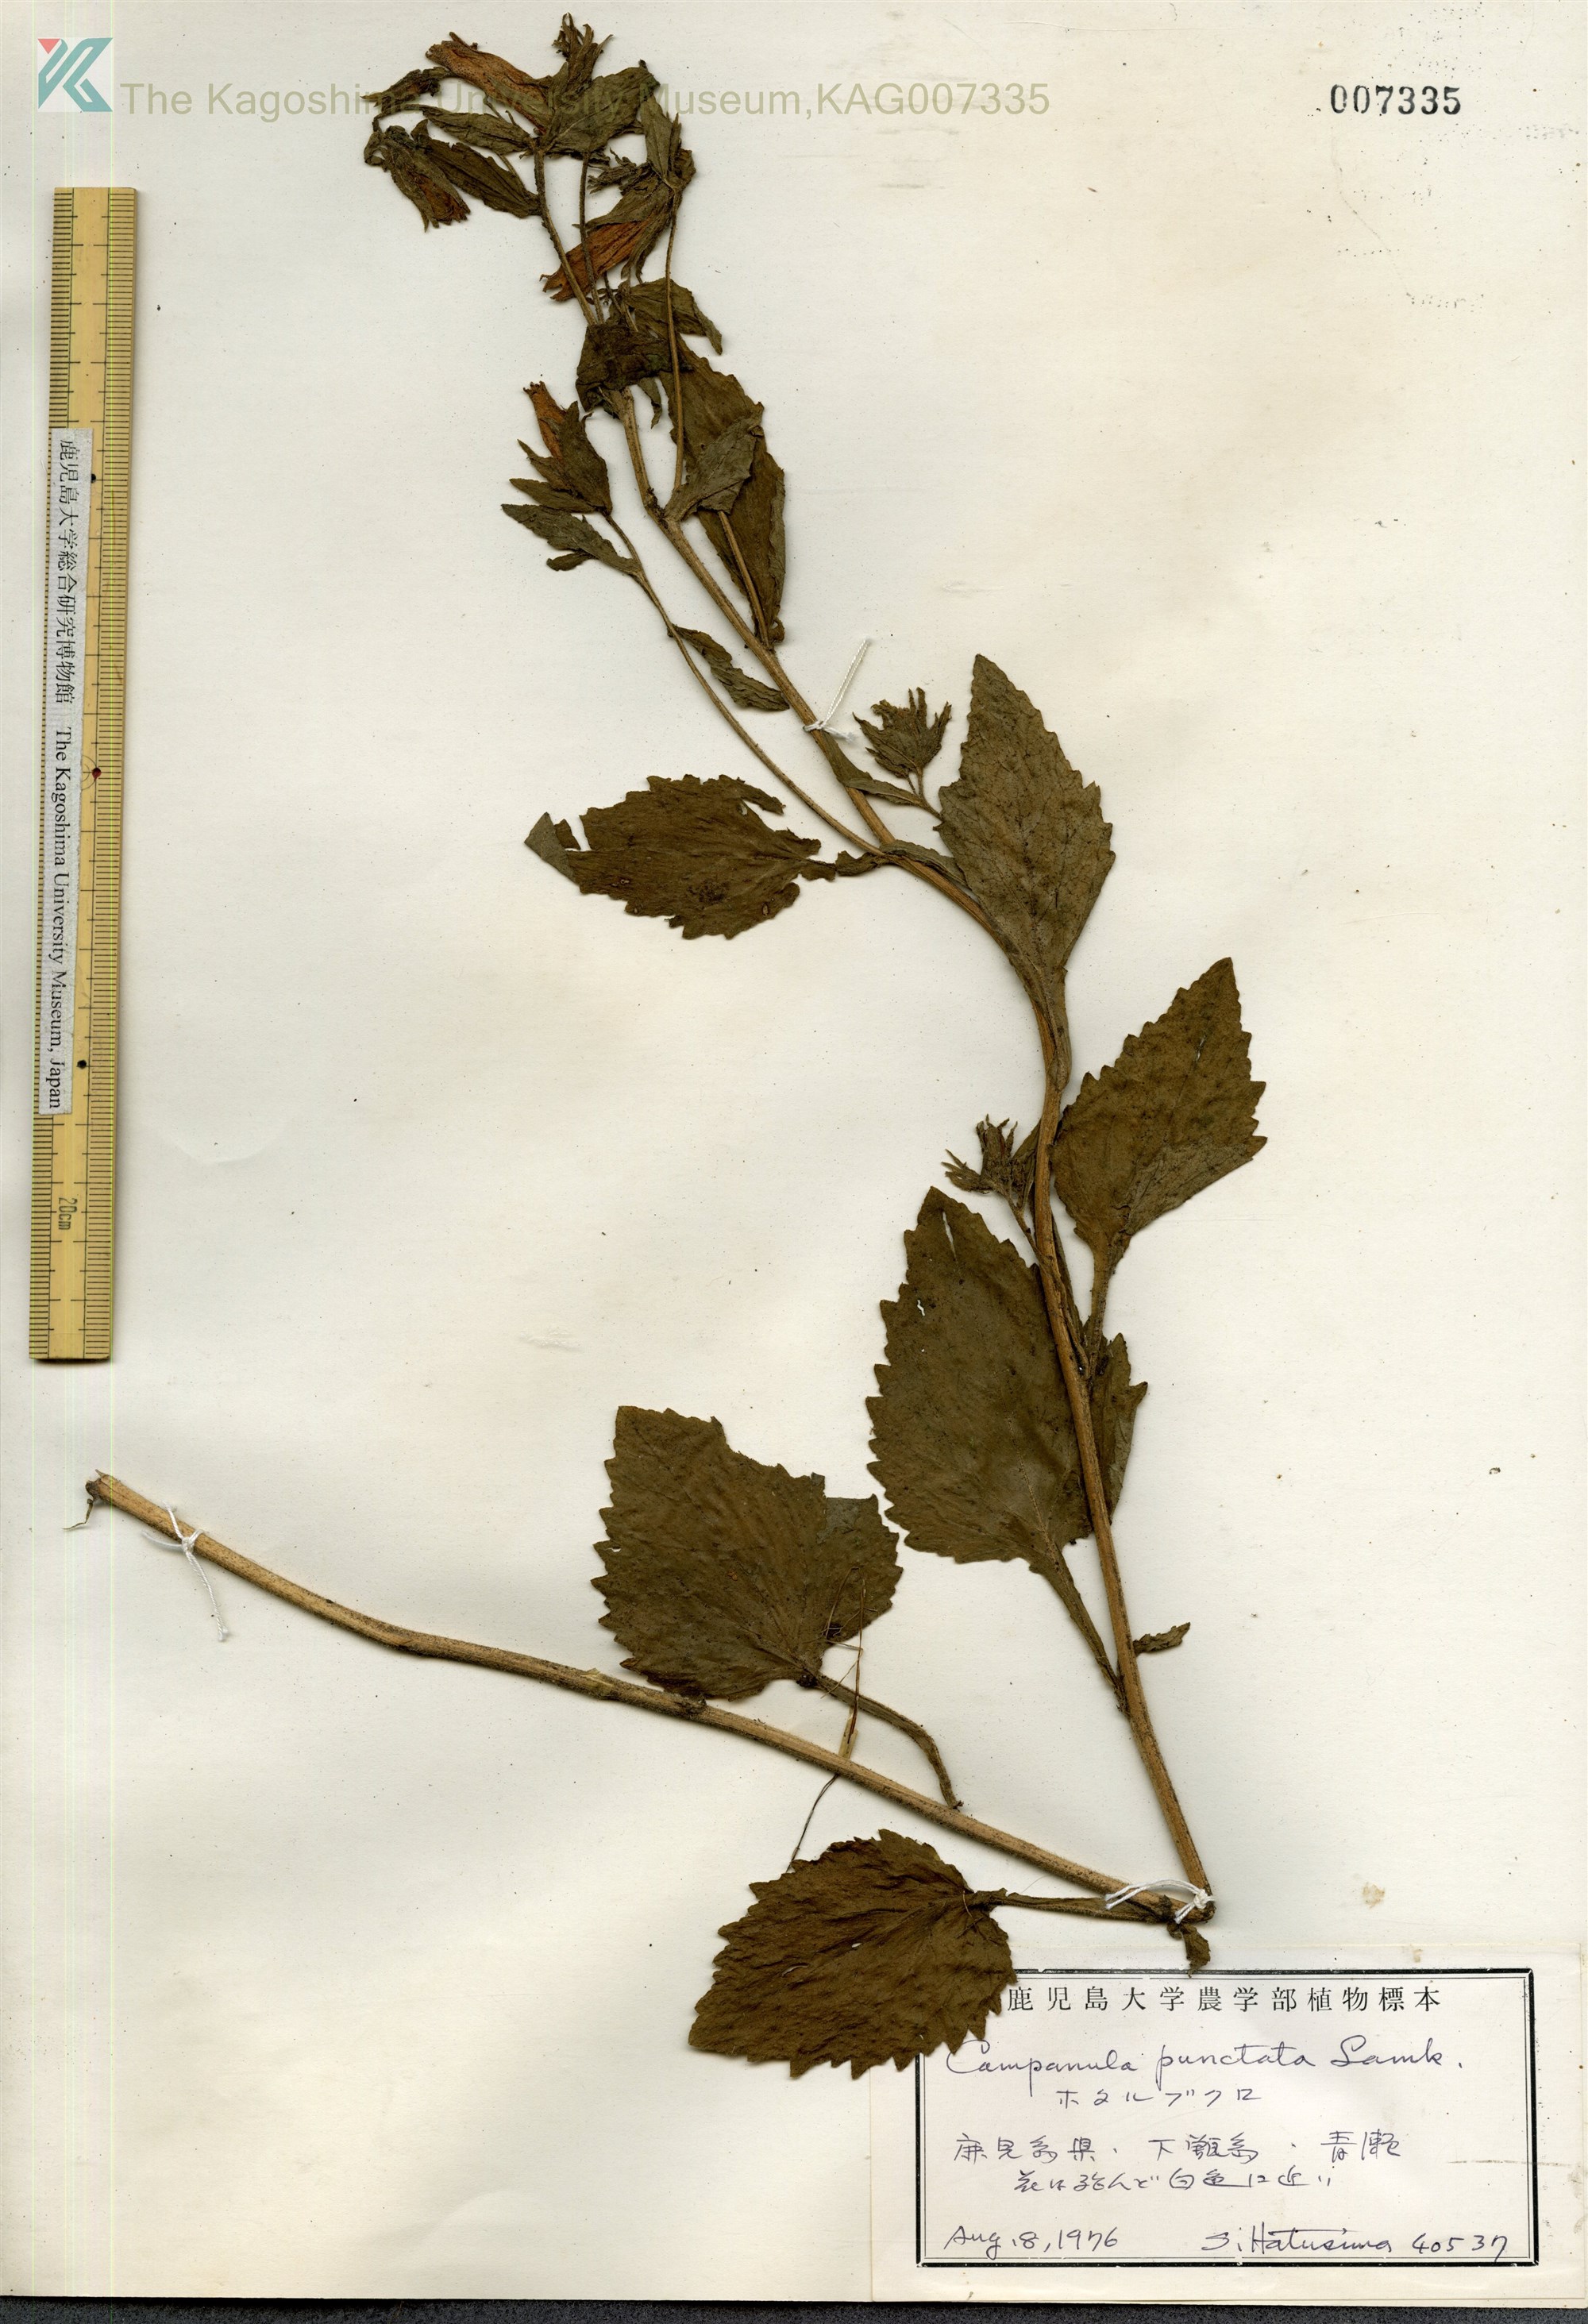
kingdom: Plantae
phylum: Tracheophyta
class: Magnoliopsida
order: Asterales
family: Campanulaceae
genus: Campanula
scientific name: Campanula punctata
